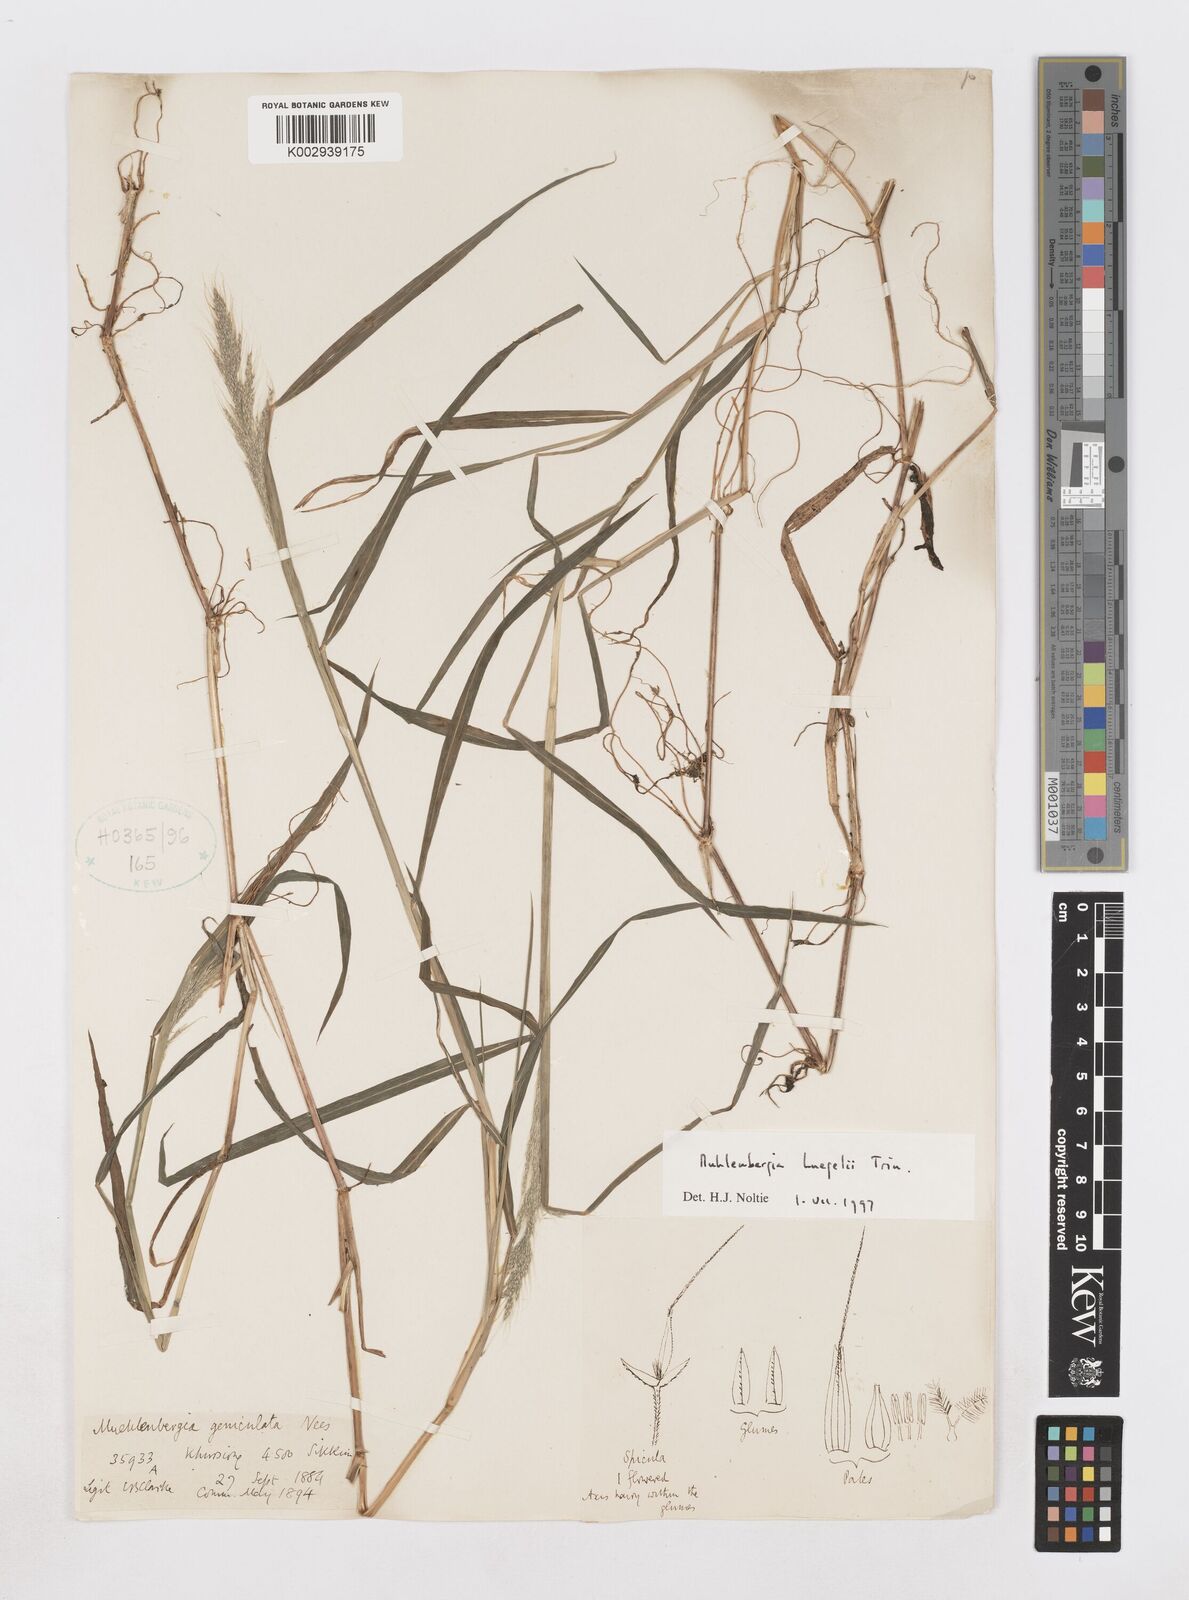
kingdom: Plantae
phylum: Tracheophyta
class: Liliopsida
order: Poales
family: Poaceae
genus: Muhlenbergia
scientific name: Muhlenbergia huegelii
